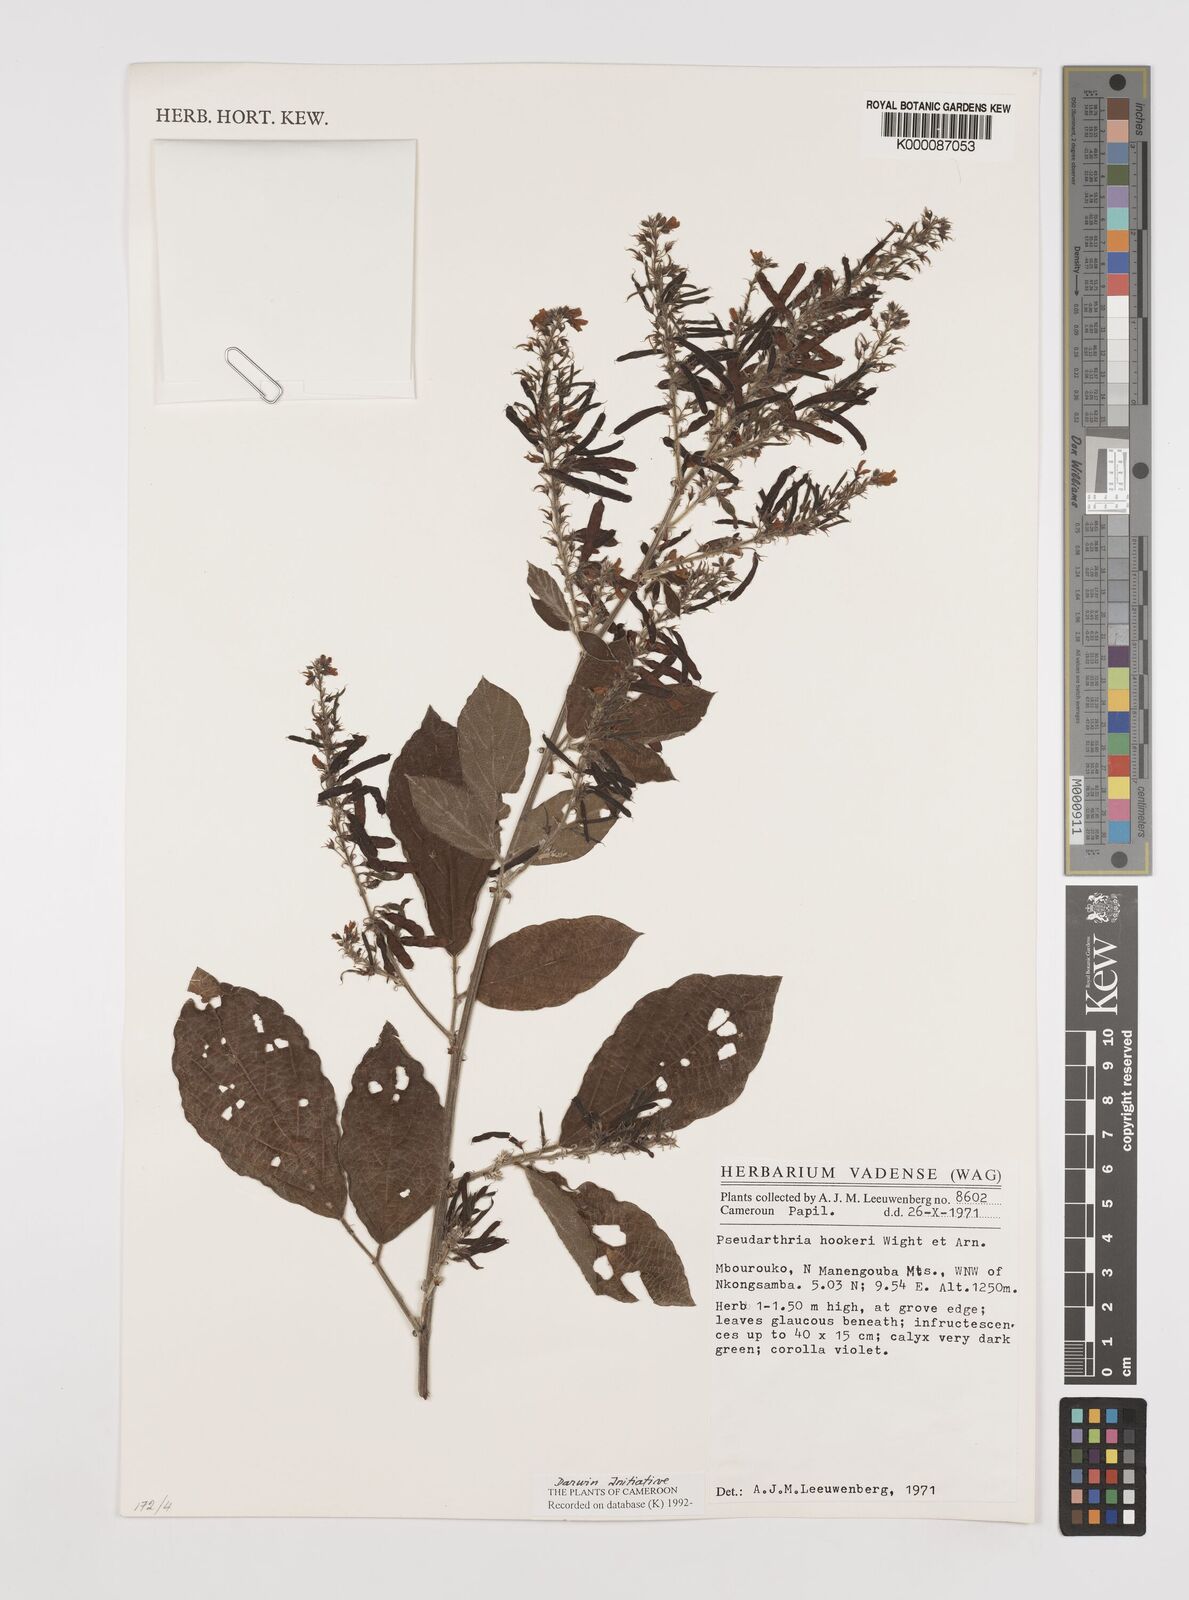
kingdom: Plantae
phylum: Tracheophyta
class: Magnoliopsida
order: Fabales
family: Fabaceae
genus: Pseudarthria
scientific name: Pseudarthria hookeri
